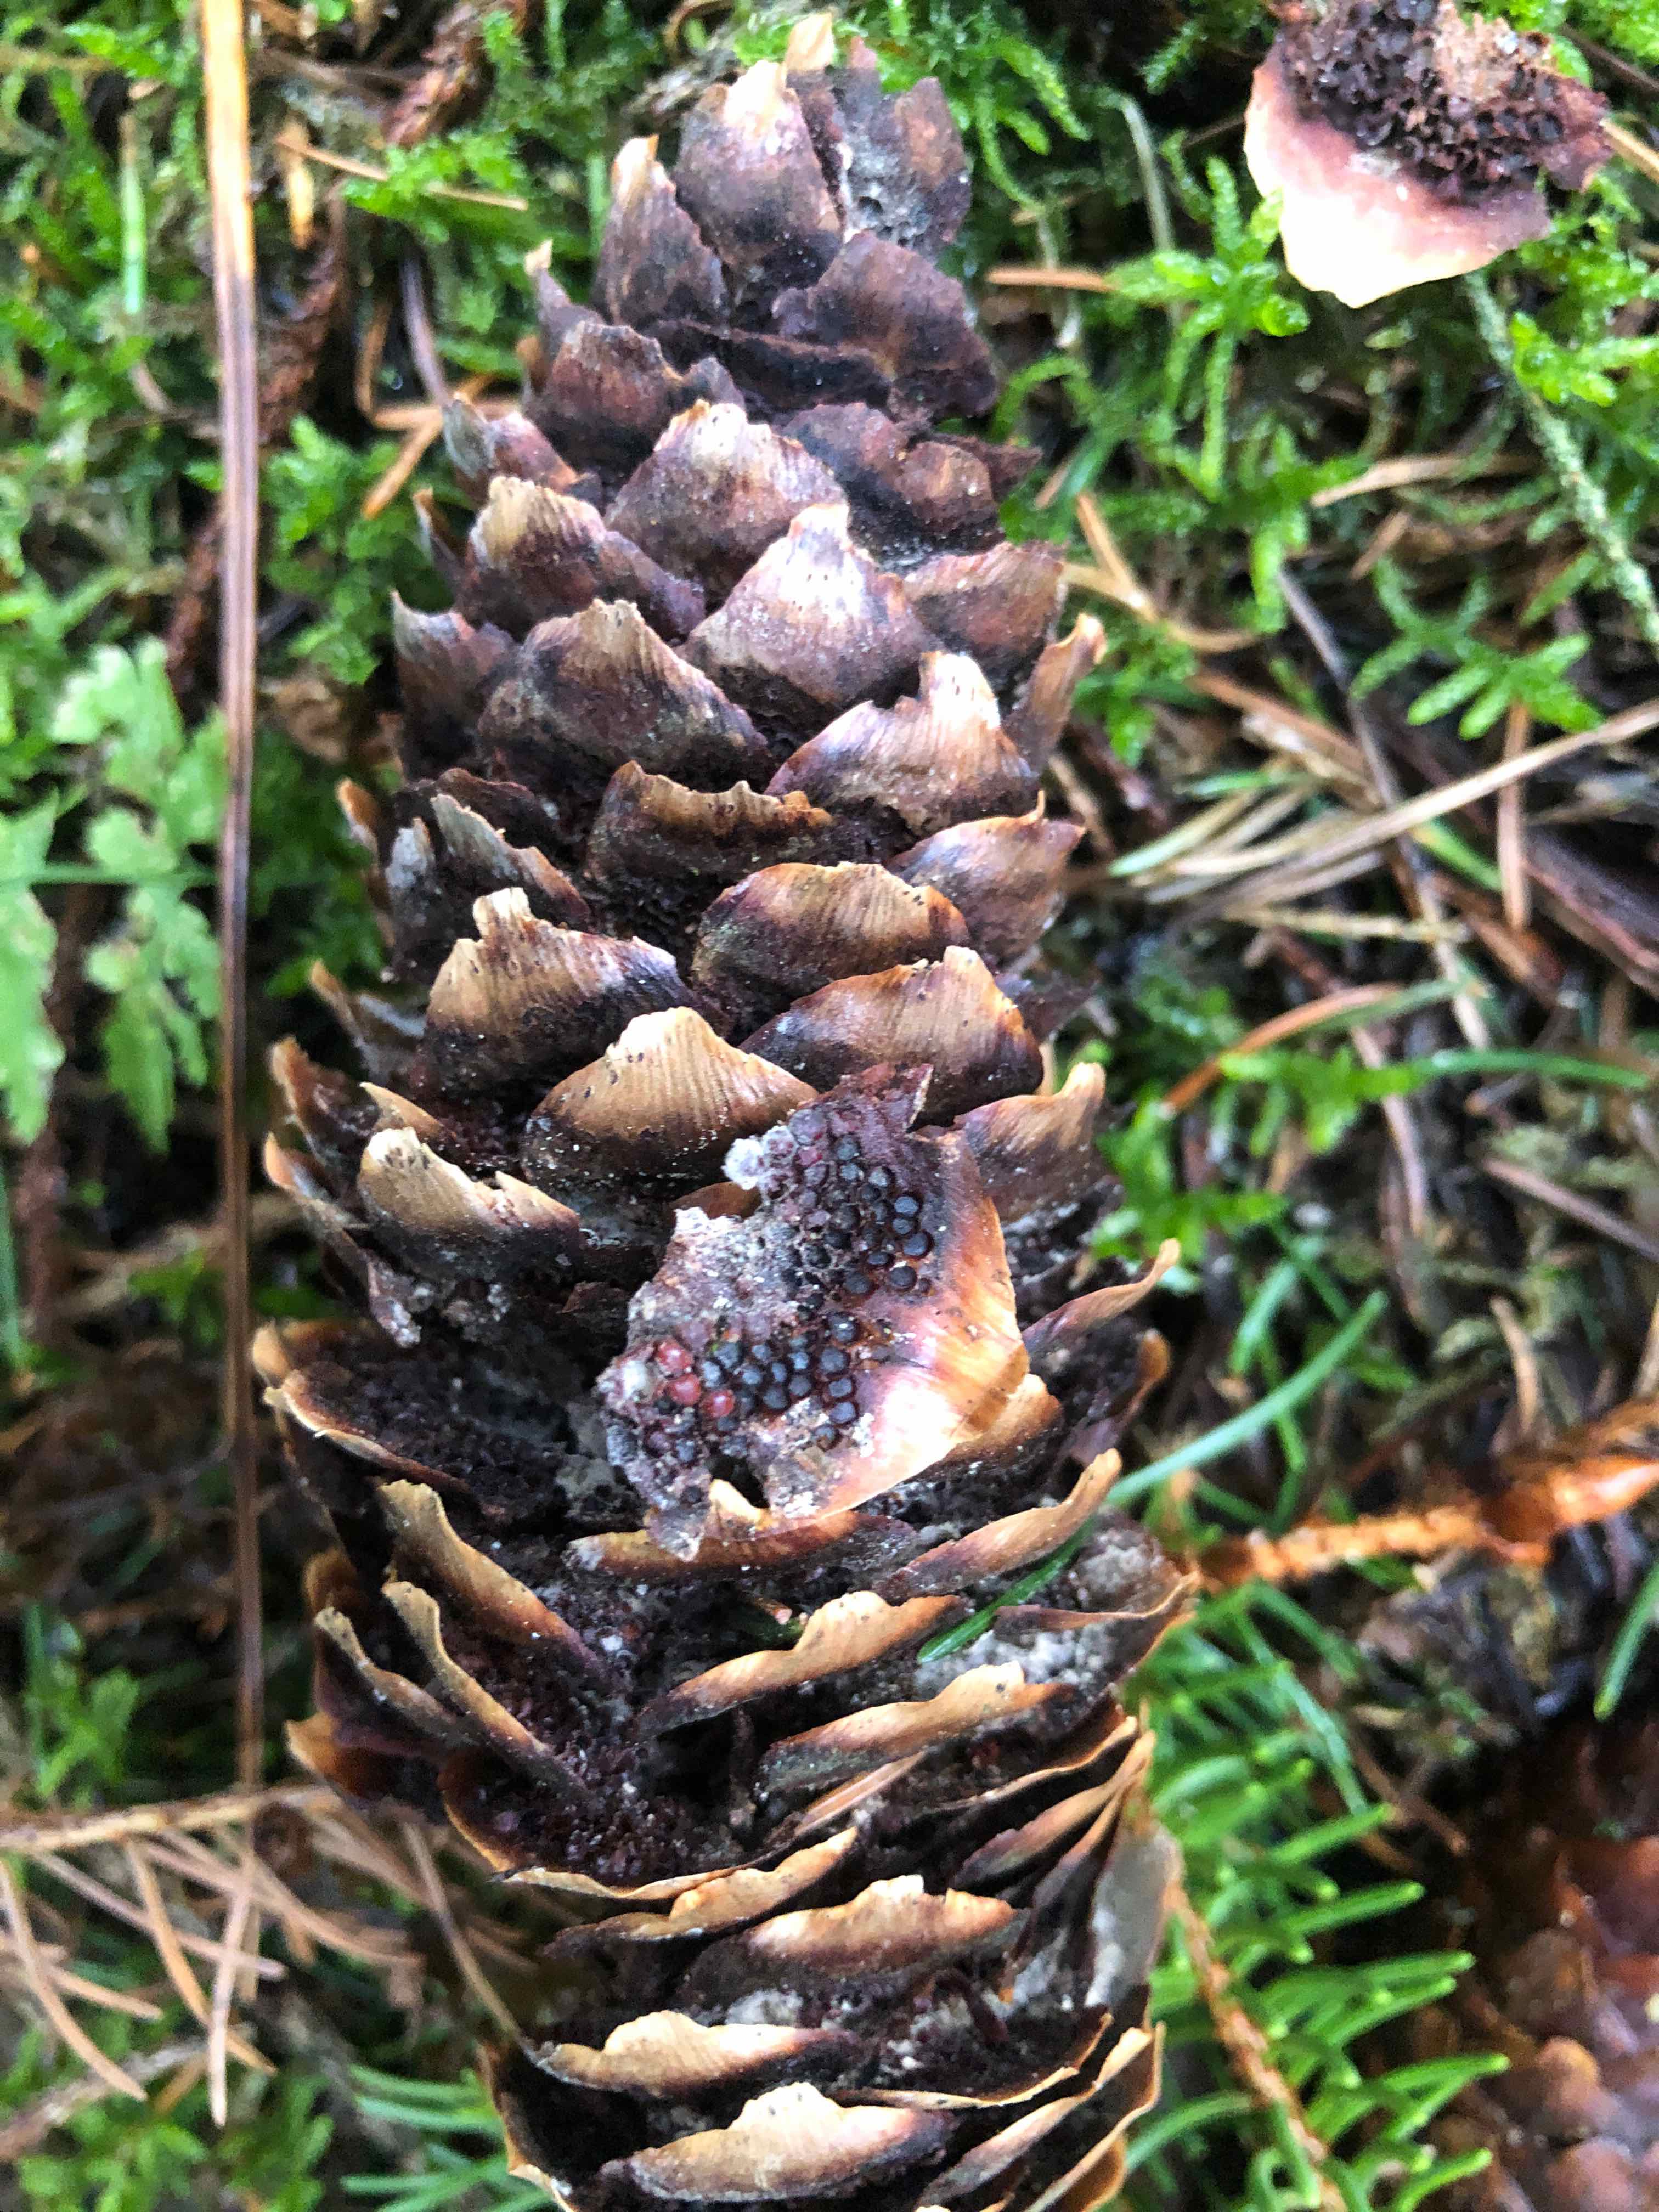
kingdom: Fungi
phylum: Basidiomycota
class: Pucciniomycetes
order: Pucciniales
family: Pucciniastraceae
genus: Thekopsora
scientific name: Thekopsora areolata
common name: grankogle-nålerust
